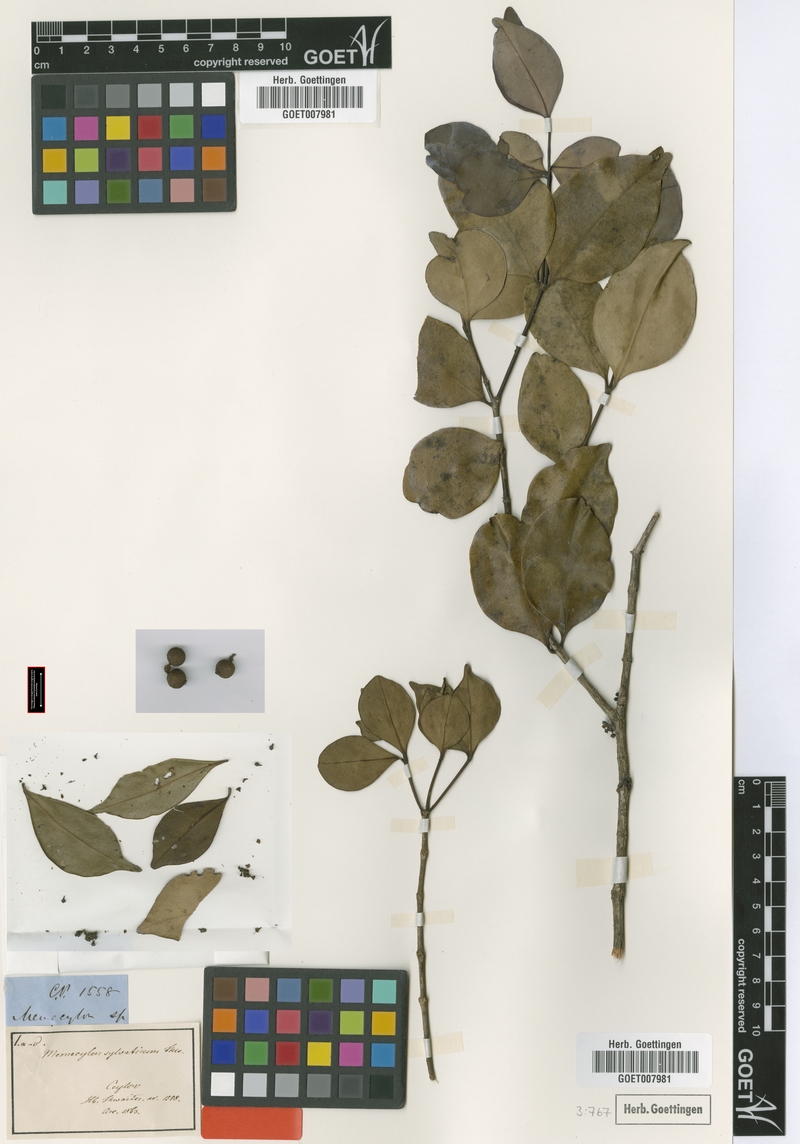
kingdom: Plantae
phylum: Tracheophyta
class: Magnoliopsida
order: Myrtales
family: Melastomataceae
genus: Memecylon
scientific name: Memecylon sylvaticum
